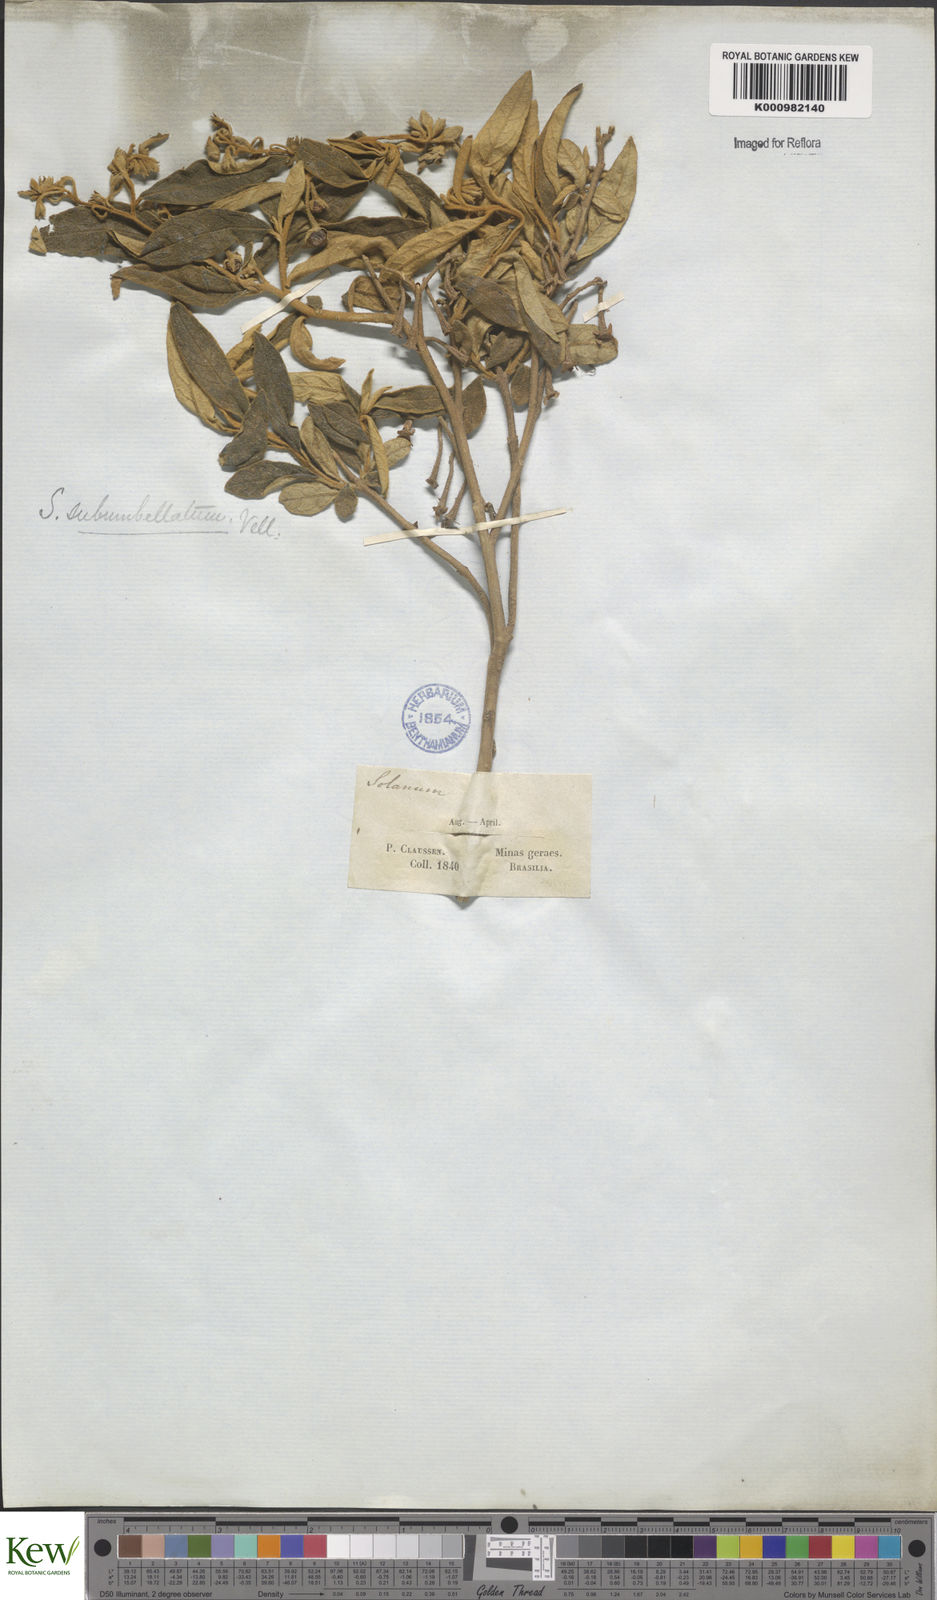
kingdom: Plantae
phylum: Tracheophyta
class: Magnoliopsida
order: Solanales
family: Solanaceae
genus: Solanum
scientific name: Solanum subumbellatum
